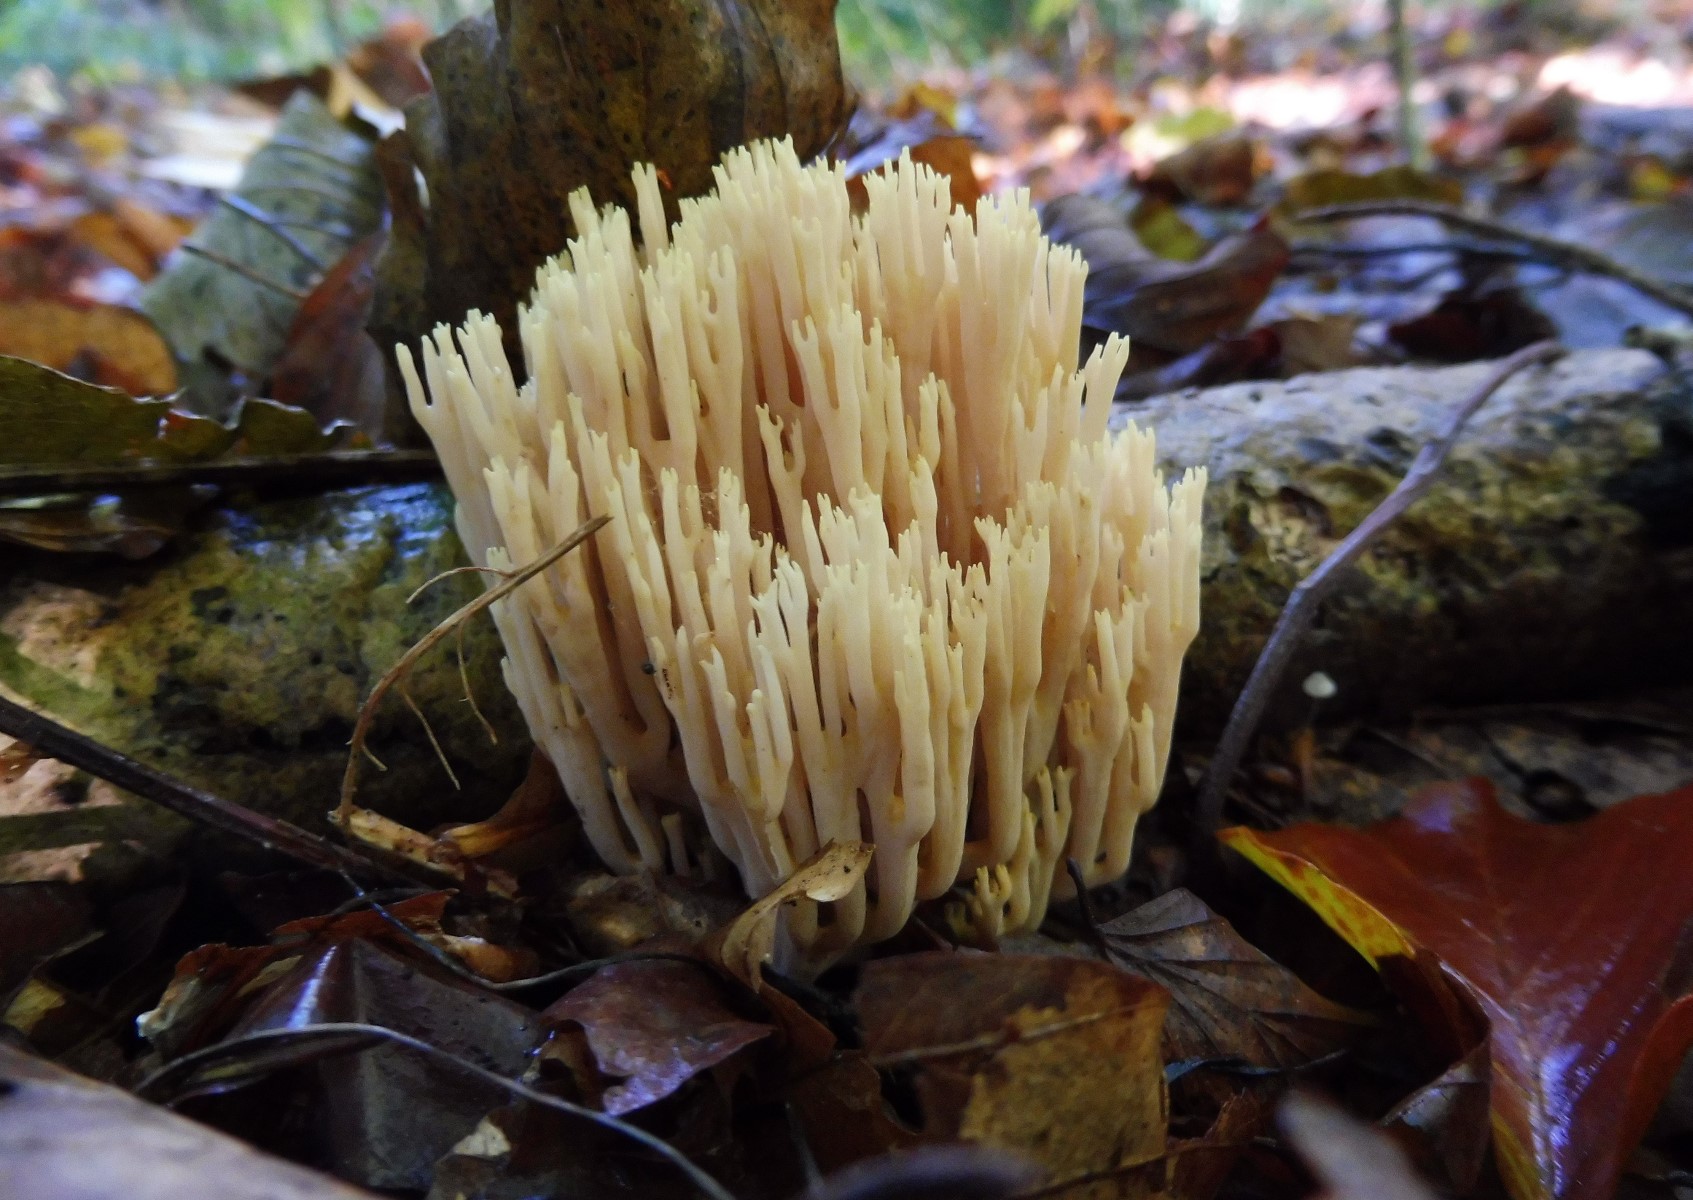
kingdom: Fungi
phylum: Basidiomycota
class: Agaricomycetes
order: Gomphales
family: Gomphaceae
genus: Ramaria
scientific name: Ramaria stricta
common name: rank koralsvamp
